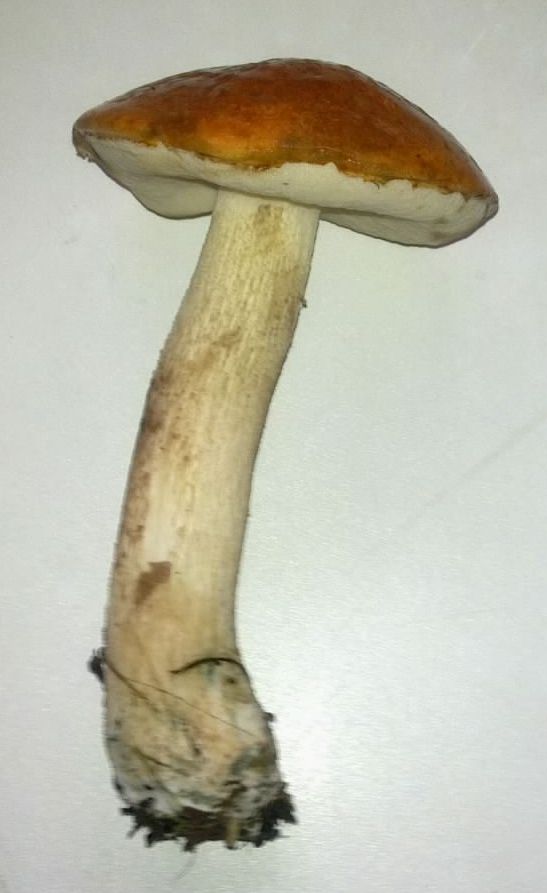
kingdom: Fungi
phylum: Basidiomycota
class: Agaricomycetes
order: Boletales
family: Boletaceae
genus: Leccinum
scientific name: Leccinum aurantiacum
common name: rustrød skælrørhat
